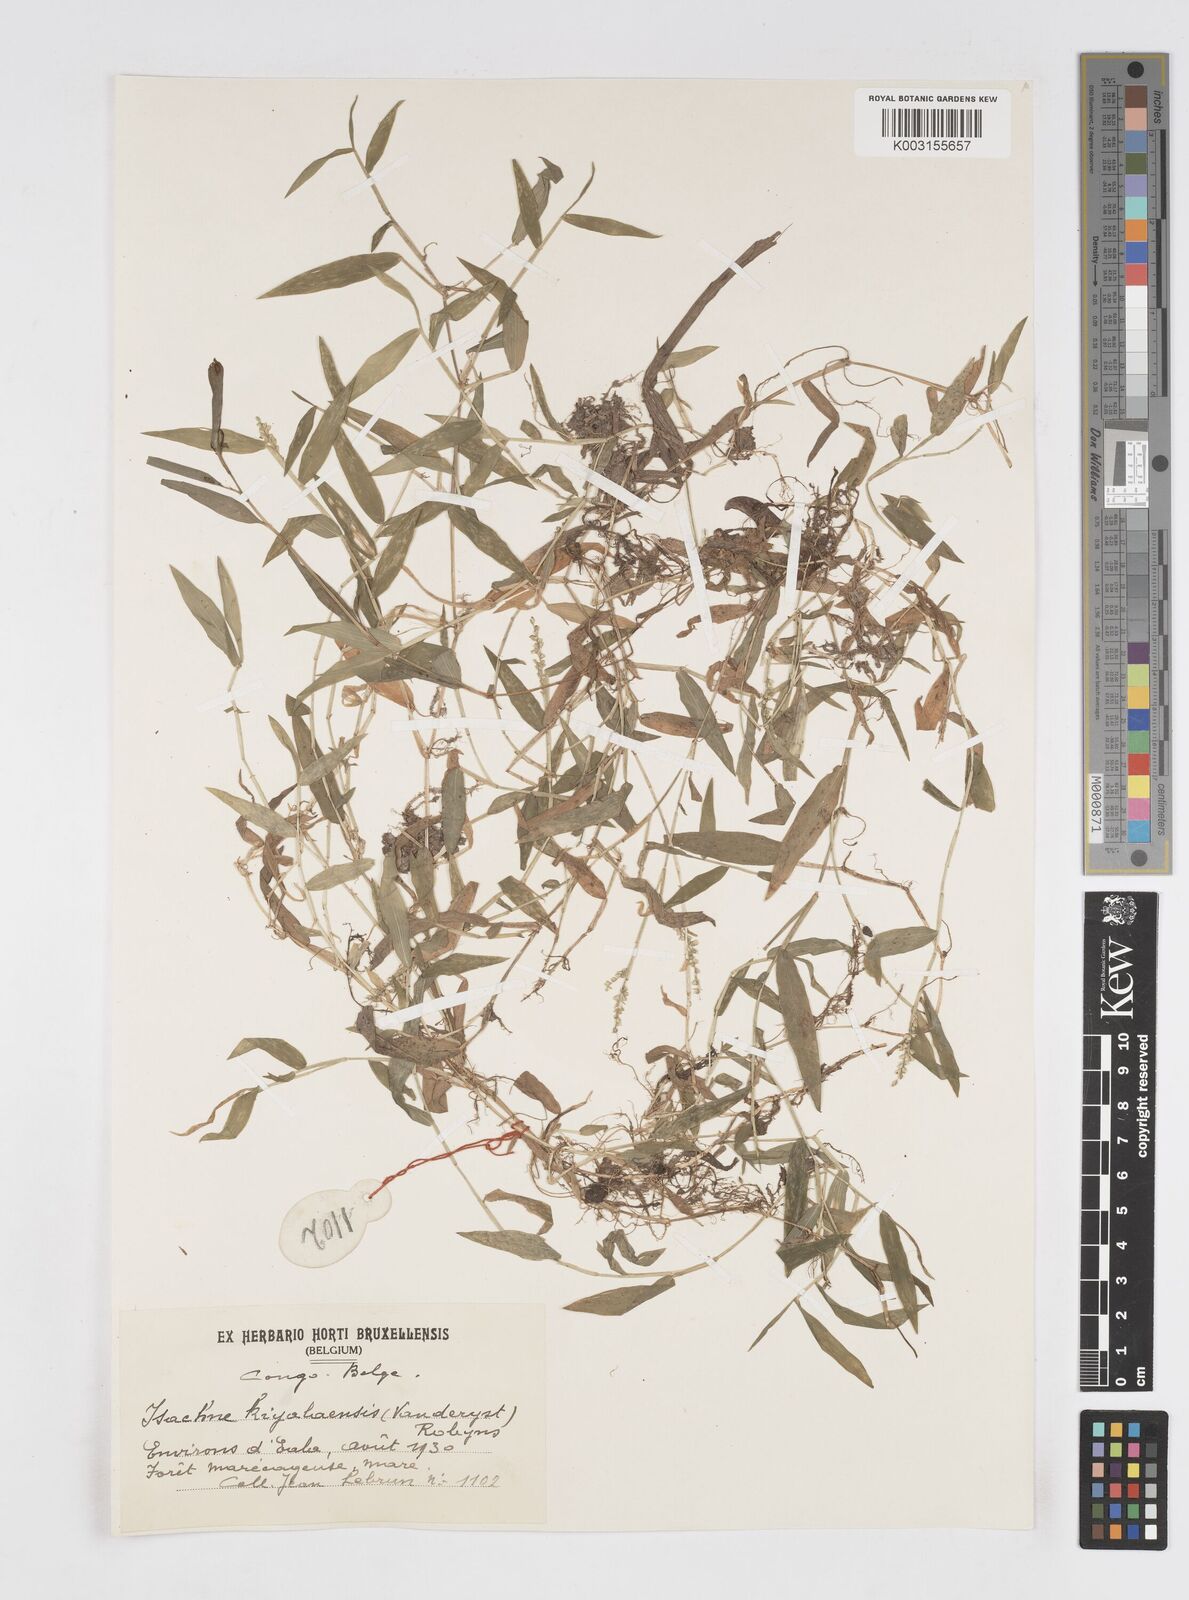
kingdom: Plantae
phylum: Tracheophyta
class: Liliopsida
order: Poales
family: Poaceae
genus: Isachne
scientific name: Isachne kiyalaensis
